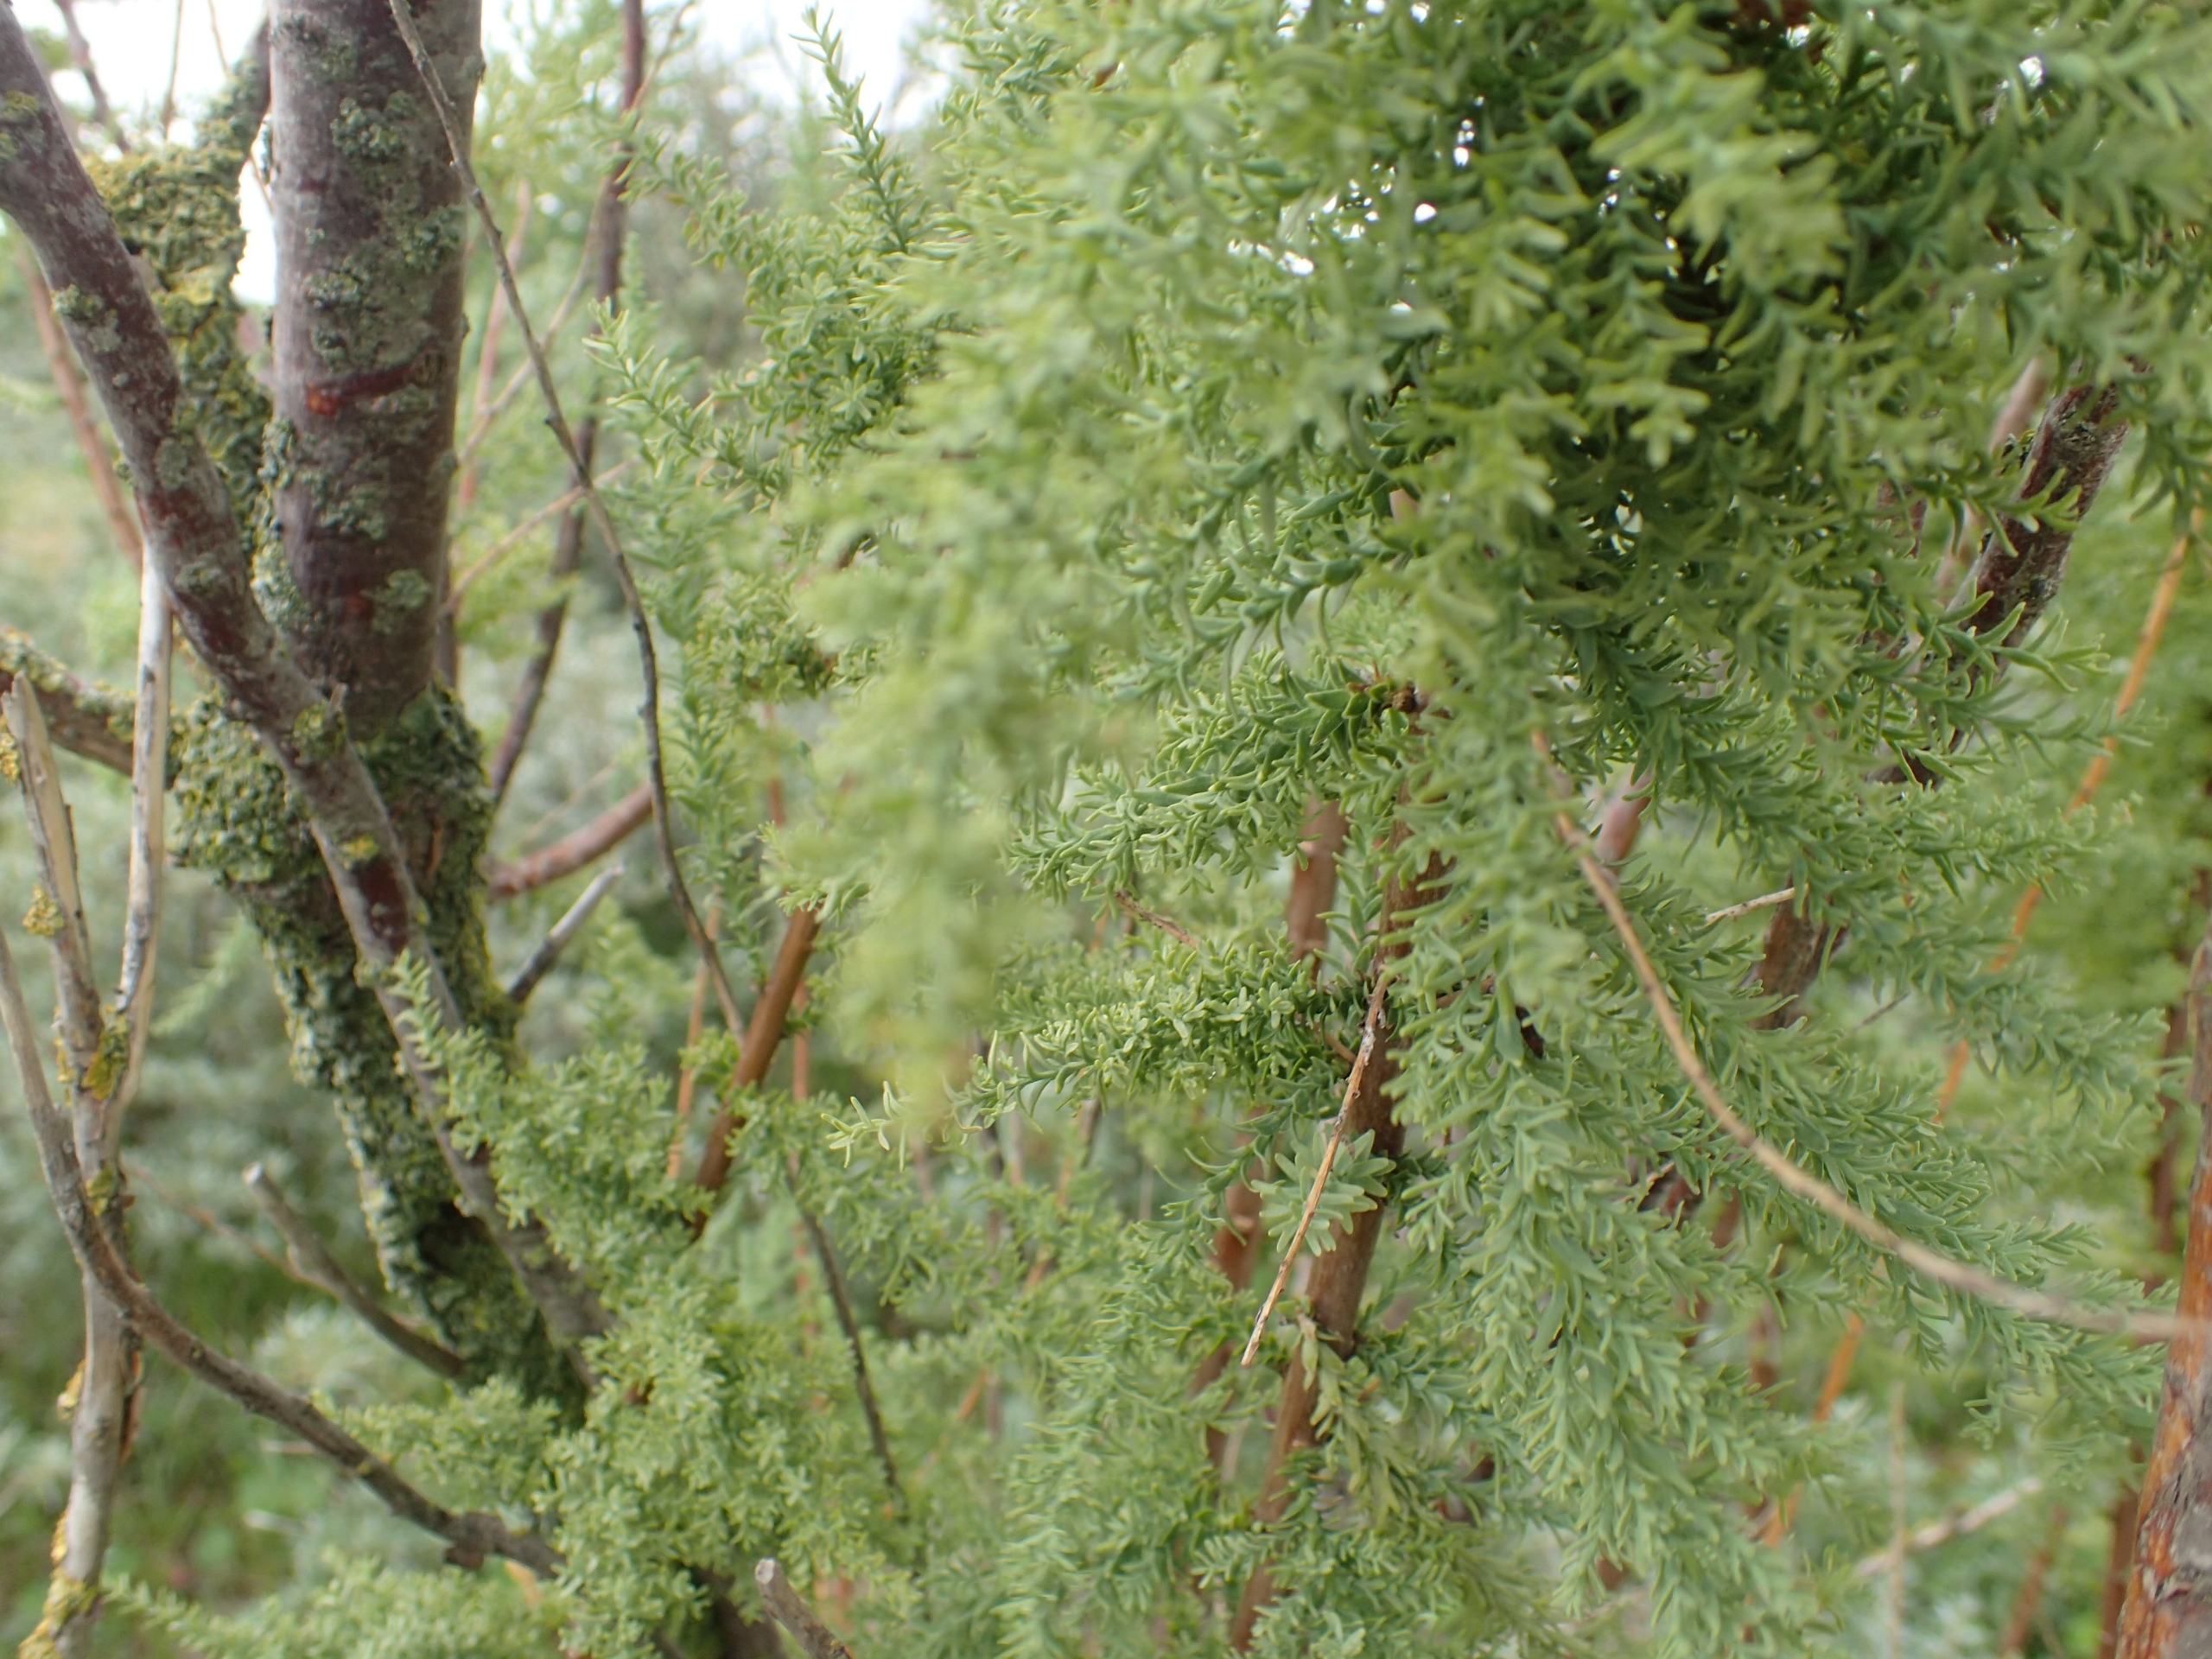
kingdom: Plantae
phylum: Tracheophyta
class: Magnoliopsida
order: Caryophyllales
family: Tamaricaceae
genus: Myricaria
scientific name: Myricaria germanica
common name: Tysk tamarisk
